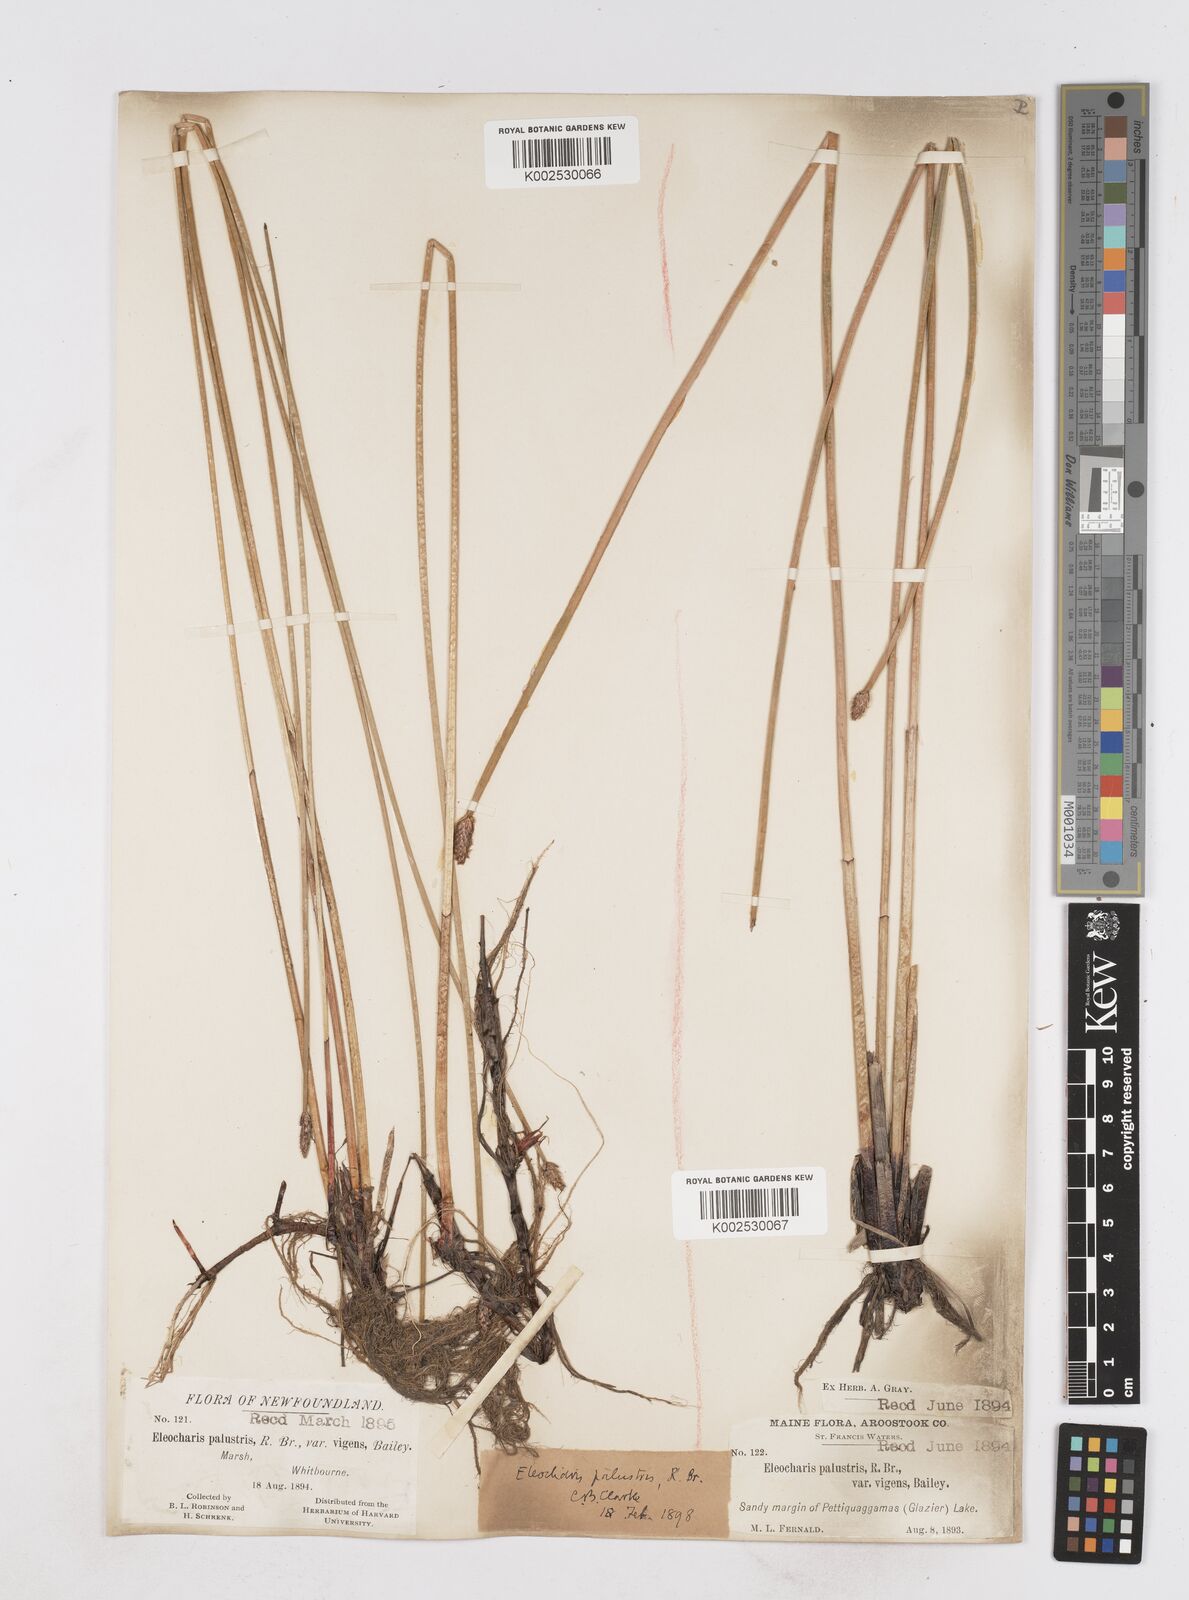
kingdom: Plantae
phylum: Tracheophyta
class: Liliopsida
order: Poales
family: Cyperaceae
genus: Eleocharis
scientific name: Eleocharis palustris
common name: Common spike-rush
